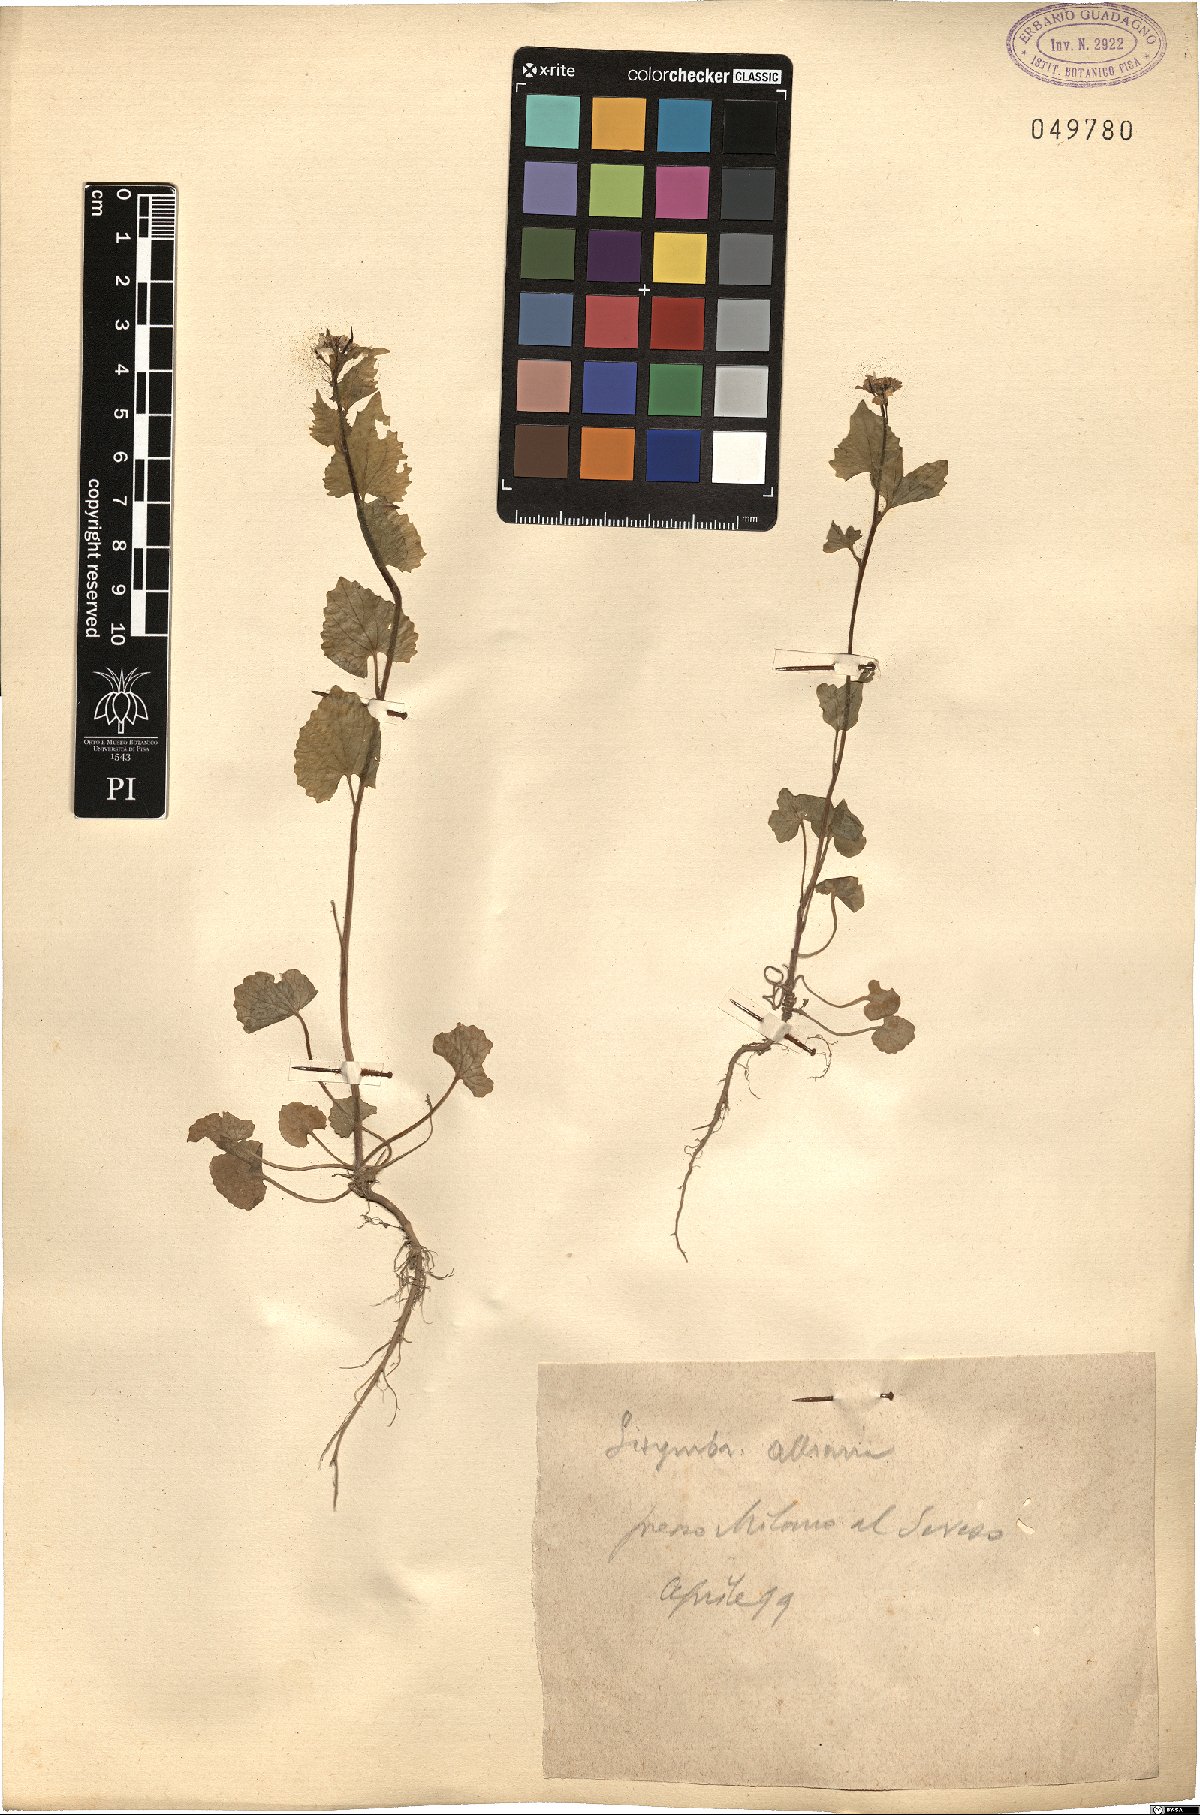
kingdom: Plantae
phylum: Tracheophyta
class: Magnoliopsida
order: Brassicales
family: Brassicaceae
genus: Alliaria
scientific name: Alliaria petiolata
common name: Garlic mustard
